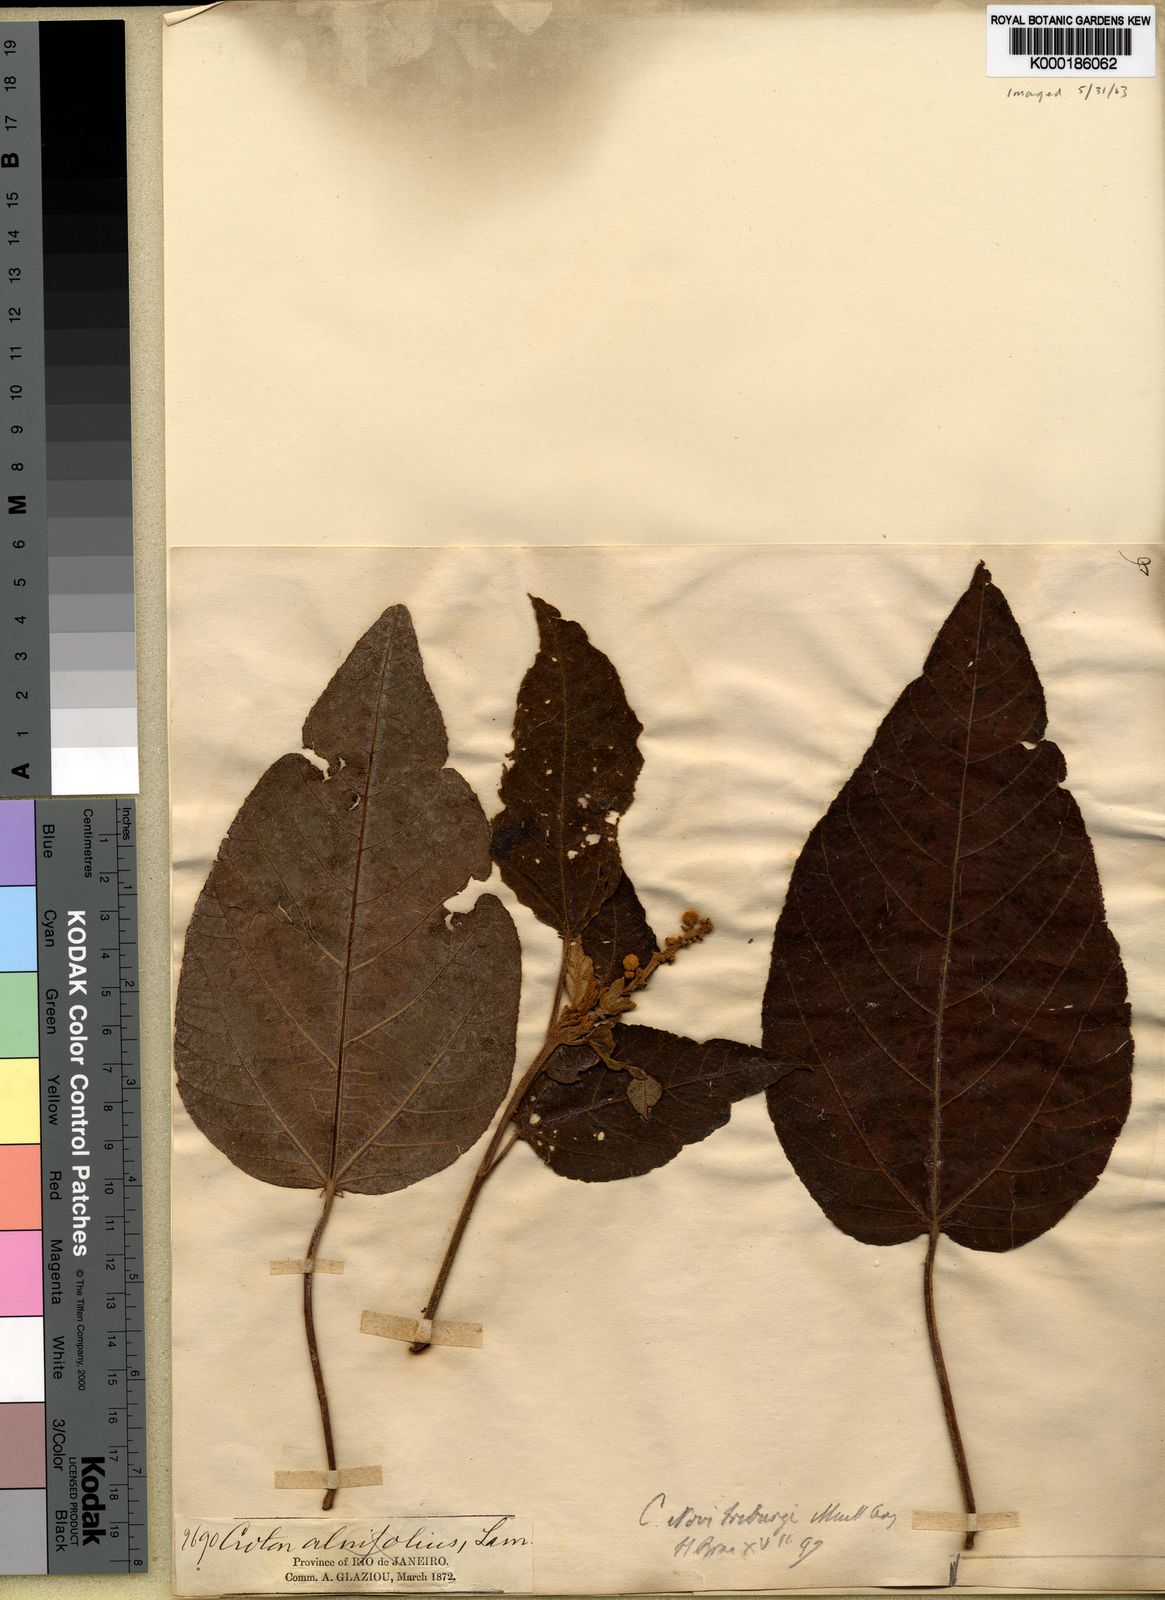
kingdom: Plantae
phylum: Tracheophyta
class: Magnoliopsida
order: Malpighiales
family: Euphorbiaceae
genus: Croton
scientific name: Croton vulnerarius
